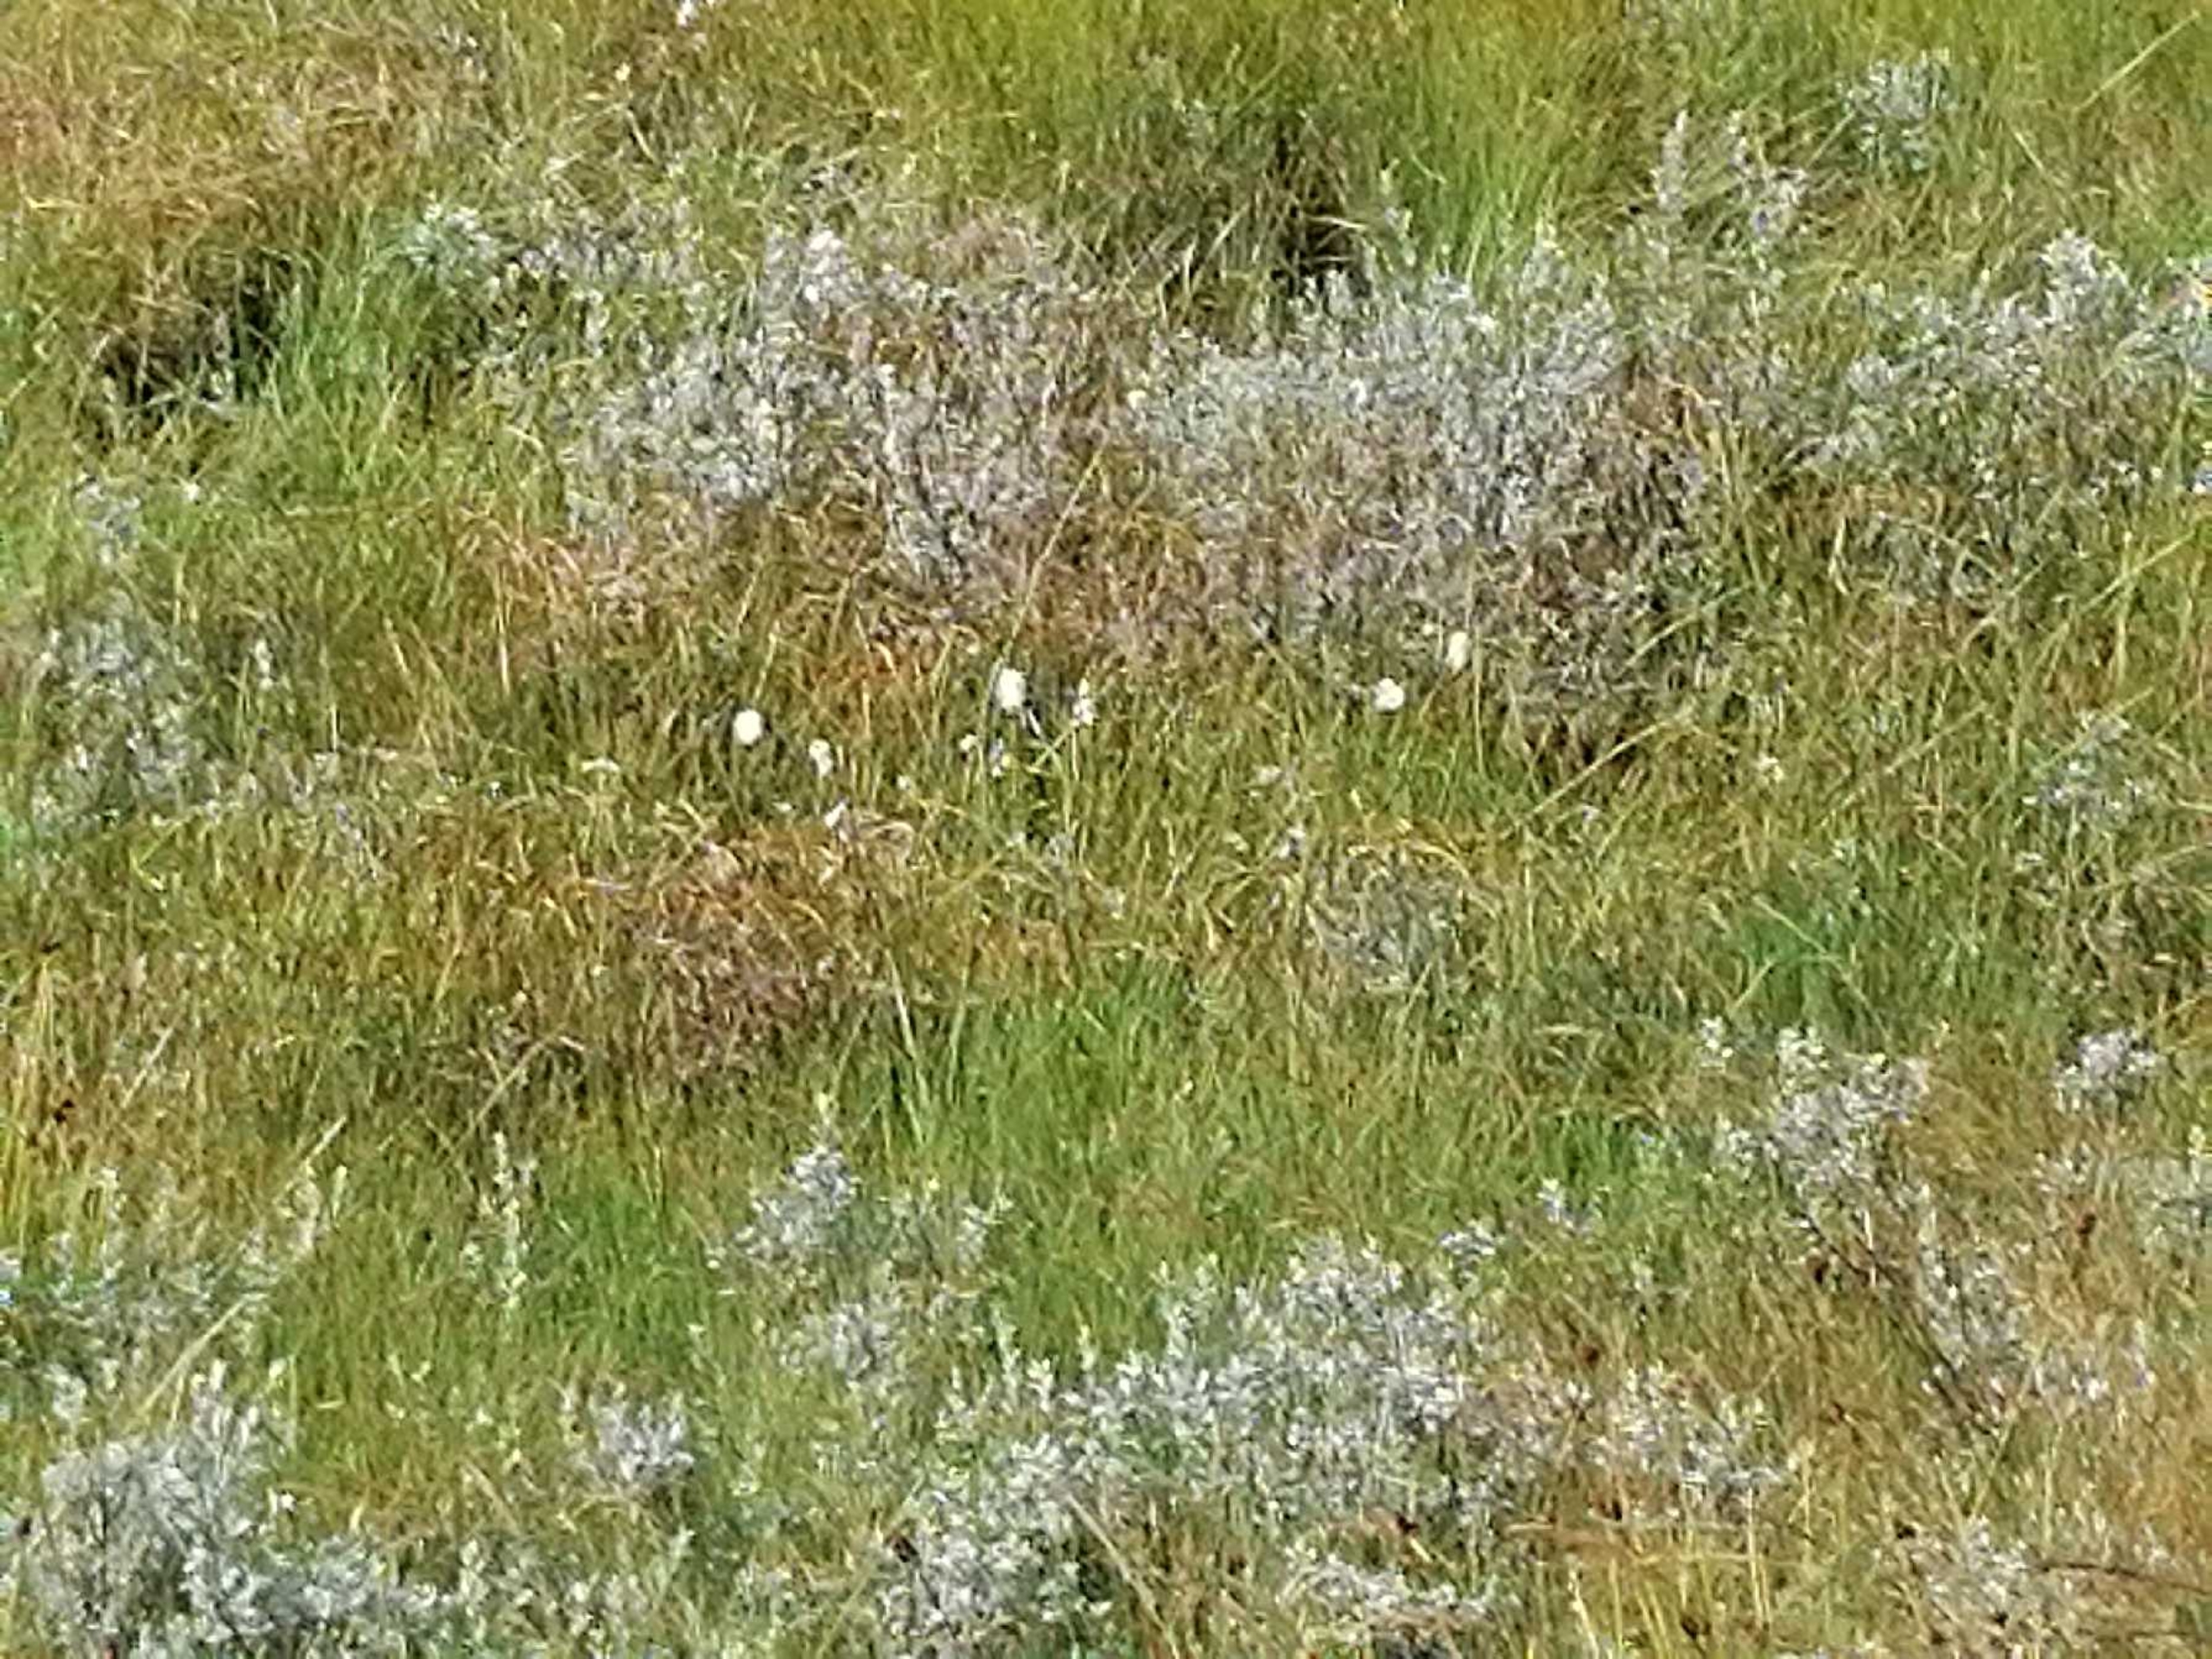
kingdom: Plantae
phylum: Tracheophyta
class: Liliopsida
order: Poales
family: Cyperaceae
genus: Eriophorum
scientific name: Eriophorum
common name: Kæruld (Eriophorum-slægten)
